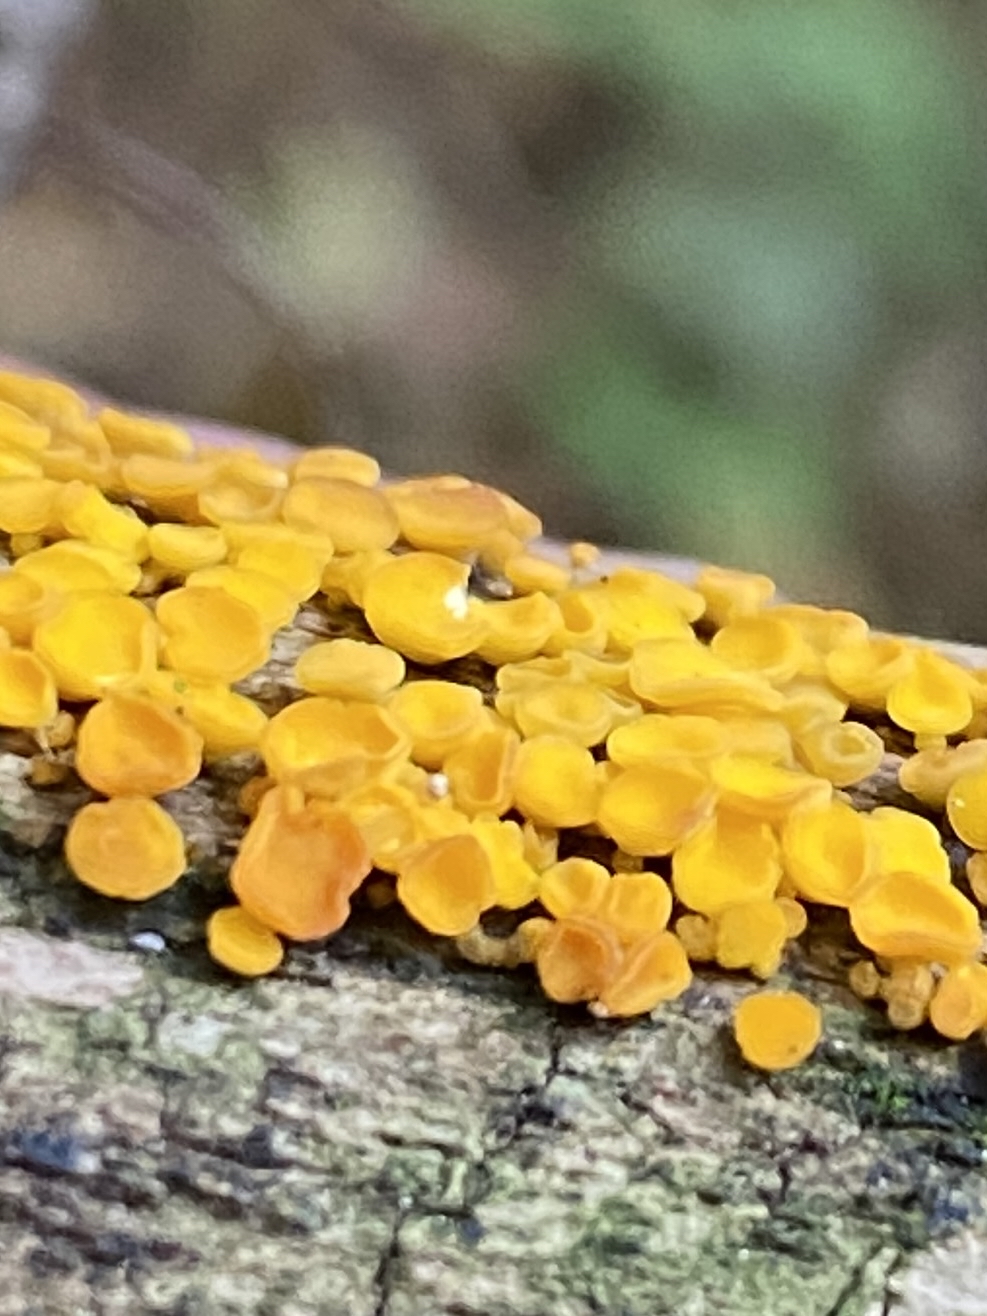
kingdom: Fungi
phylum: Ascomycota
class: Leotiomycetes
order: Helotiales
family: Pezizellaceae
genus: Calycina
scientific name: Calycina citrina
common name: almindelig gulskive
